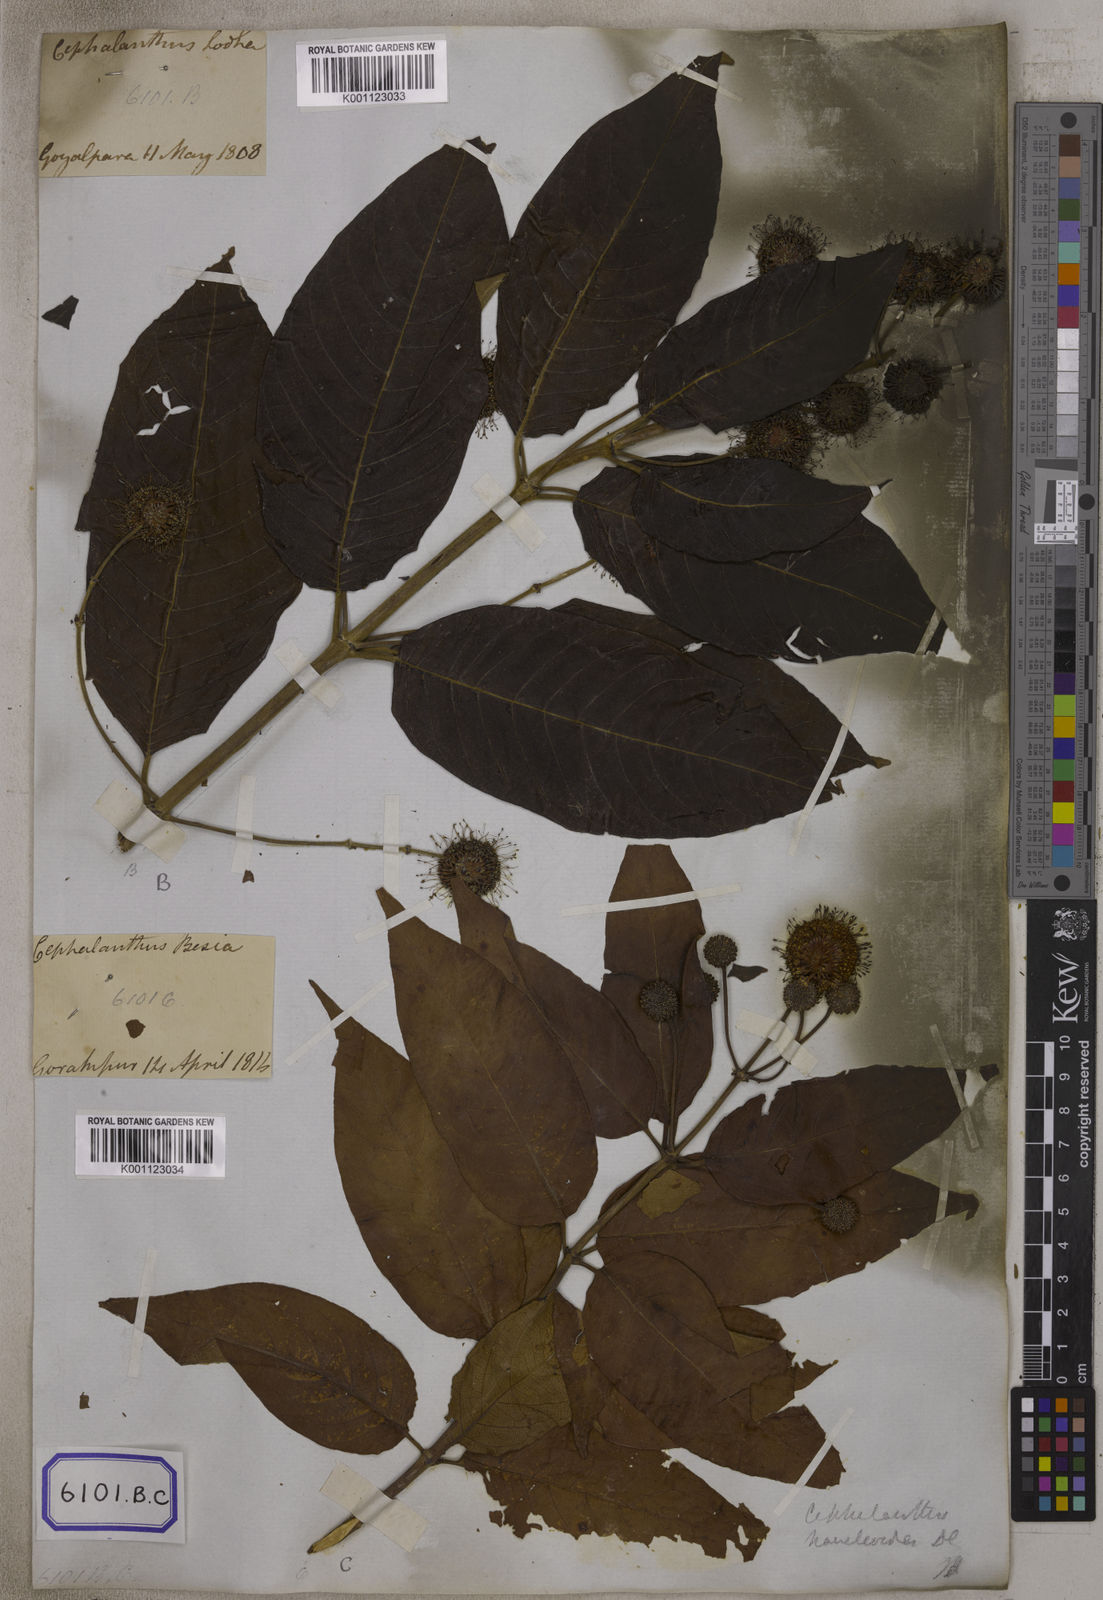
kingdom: Plantae
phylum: Tracheophyta
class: Magnoliopsida
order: Gentianales
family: Rubiaceae
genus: Cephalanthus
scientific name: Cephalanthus tetrandrus
